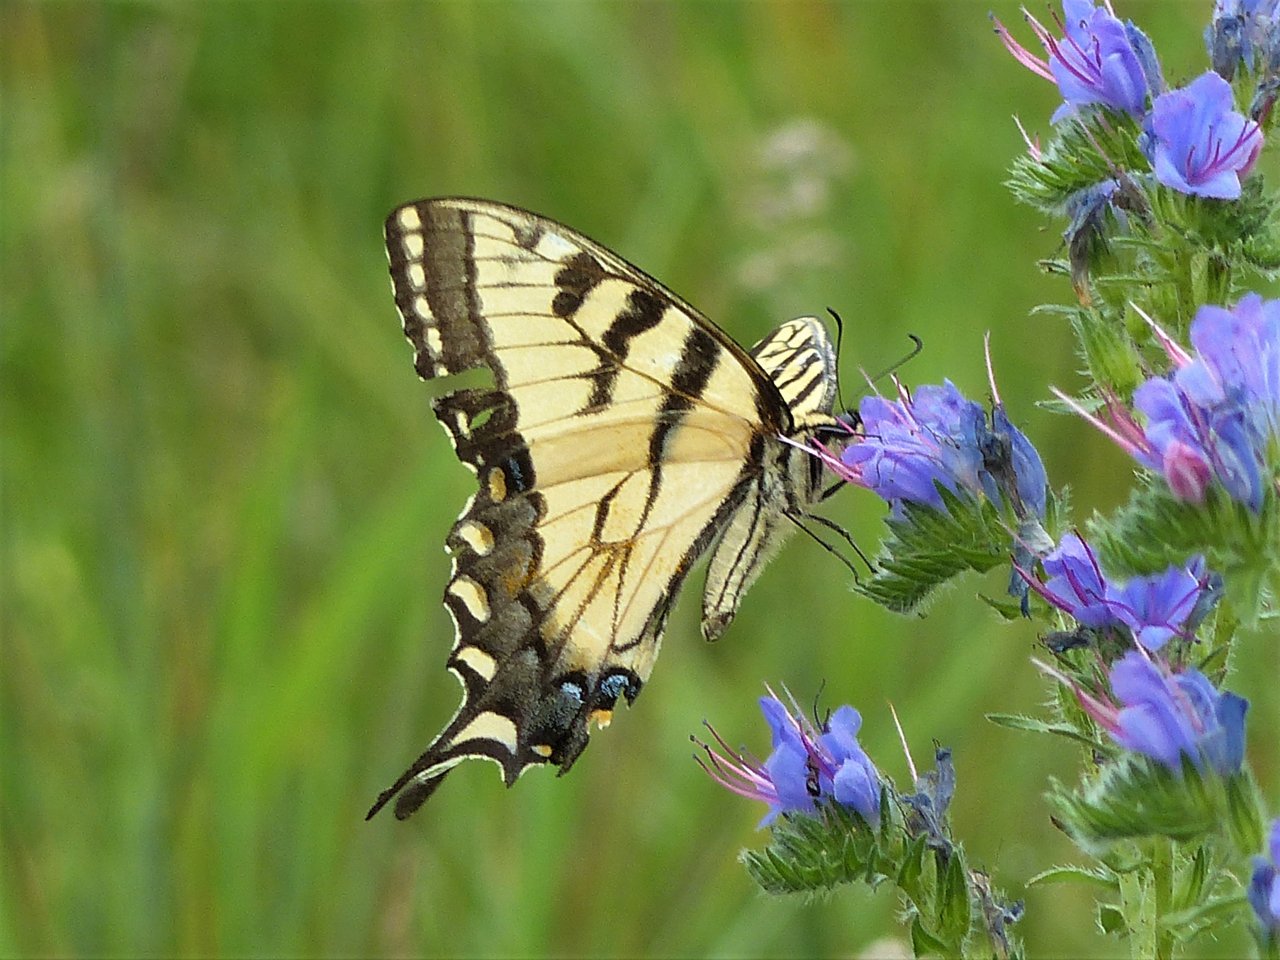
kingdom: Animalia
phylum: Arthropoda
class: Insecta
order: Lepidoptera
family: Papilionidae
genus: Pterourus
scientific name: Pterourus glaucus
